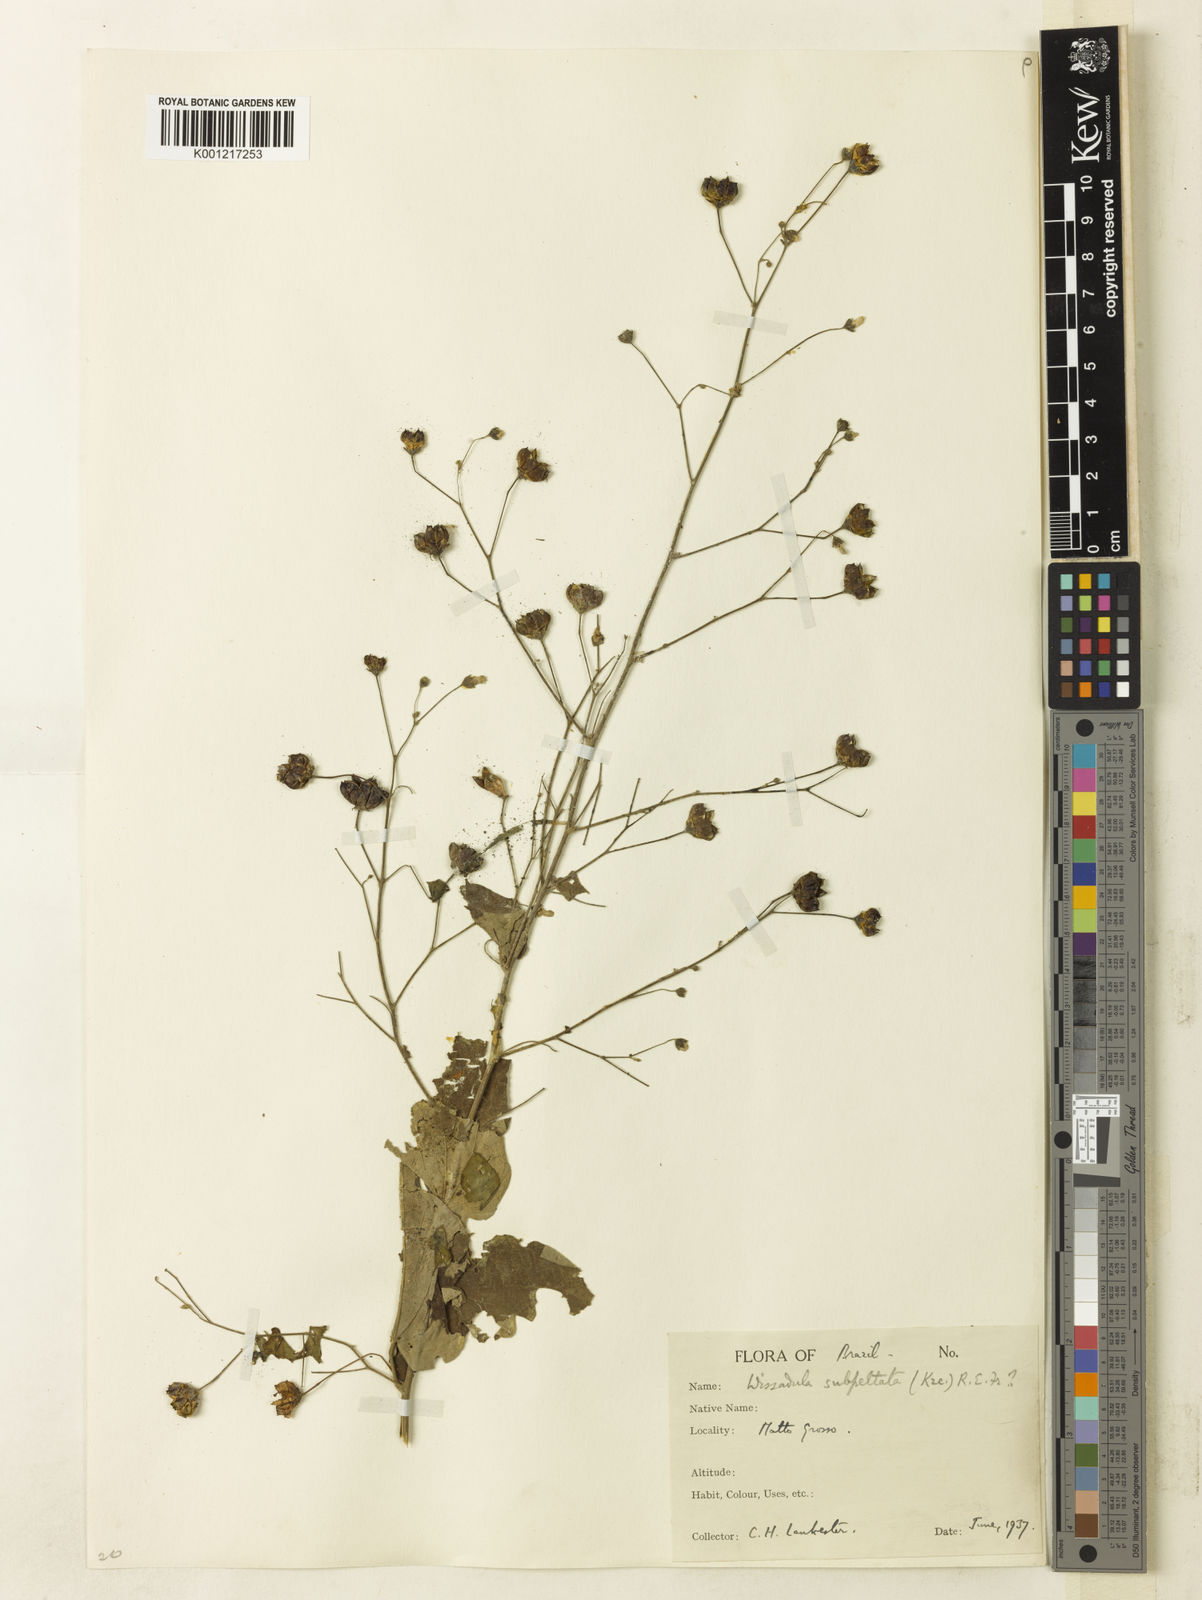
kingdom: Plantae
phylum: Tracheophyta
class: Magnoliopsida
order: Malvales
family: Malvaceae
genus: Wissadula
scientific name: Wissadula subpeltata
